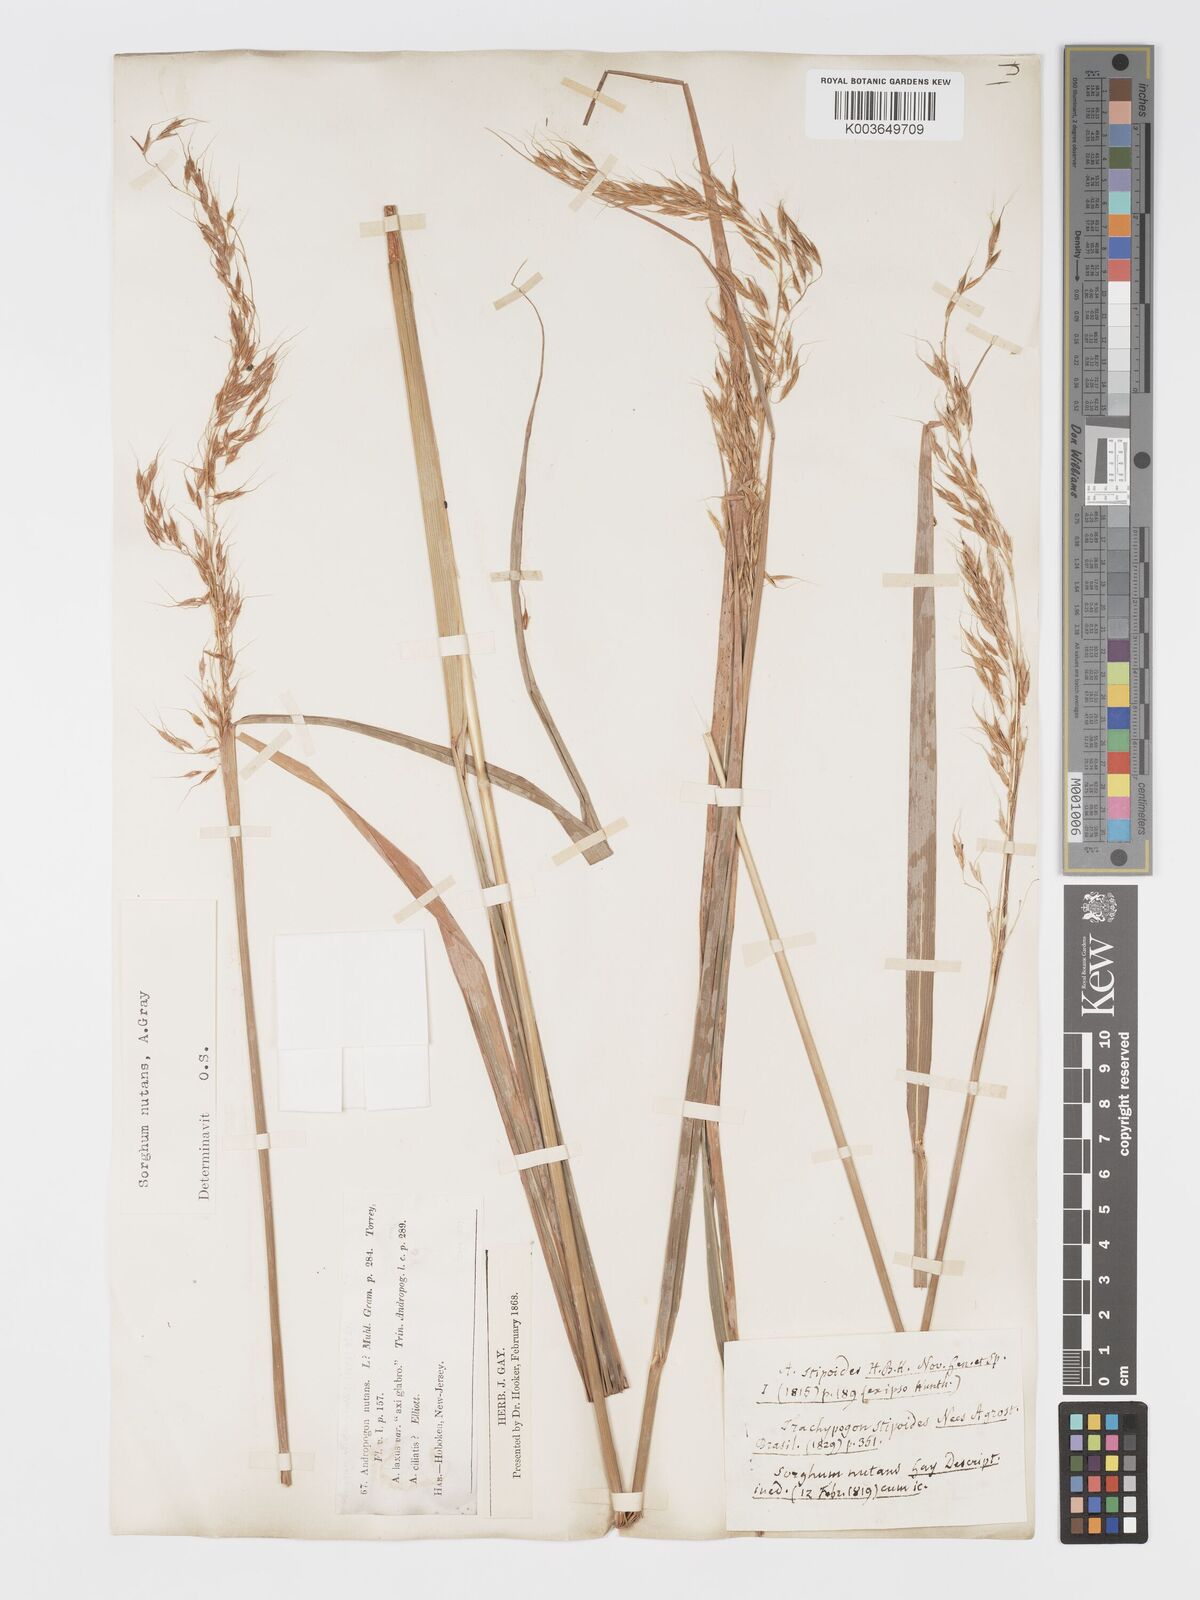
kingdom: Plantae
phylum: Tracheophyta
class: Liliopsida
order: Poales
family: Poaceae
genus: Sorghastrum
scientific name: Sorghastrum nutans
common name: Indian grass
